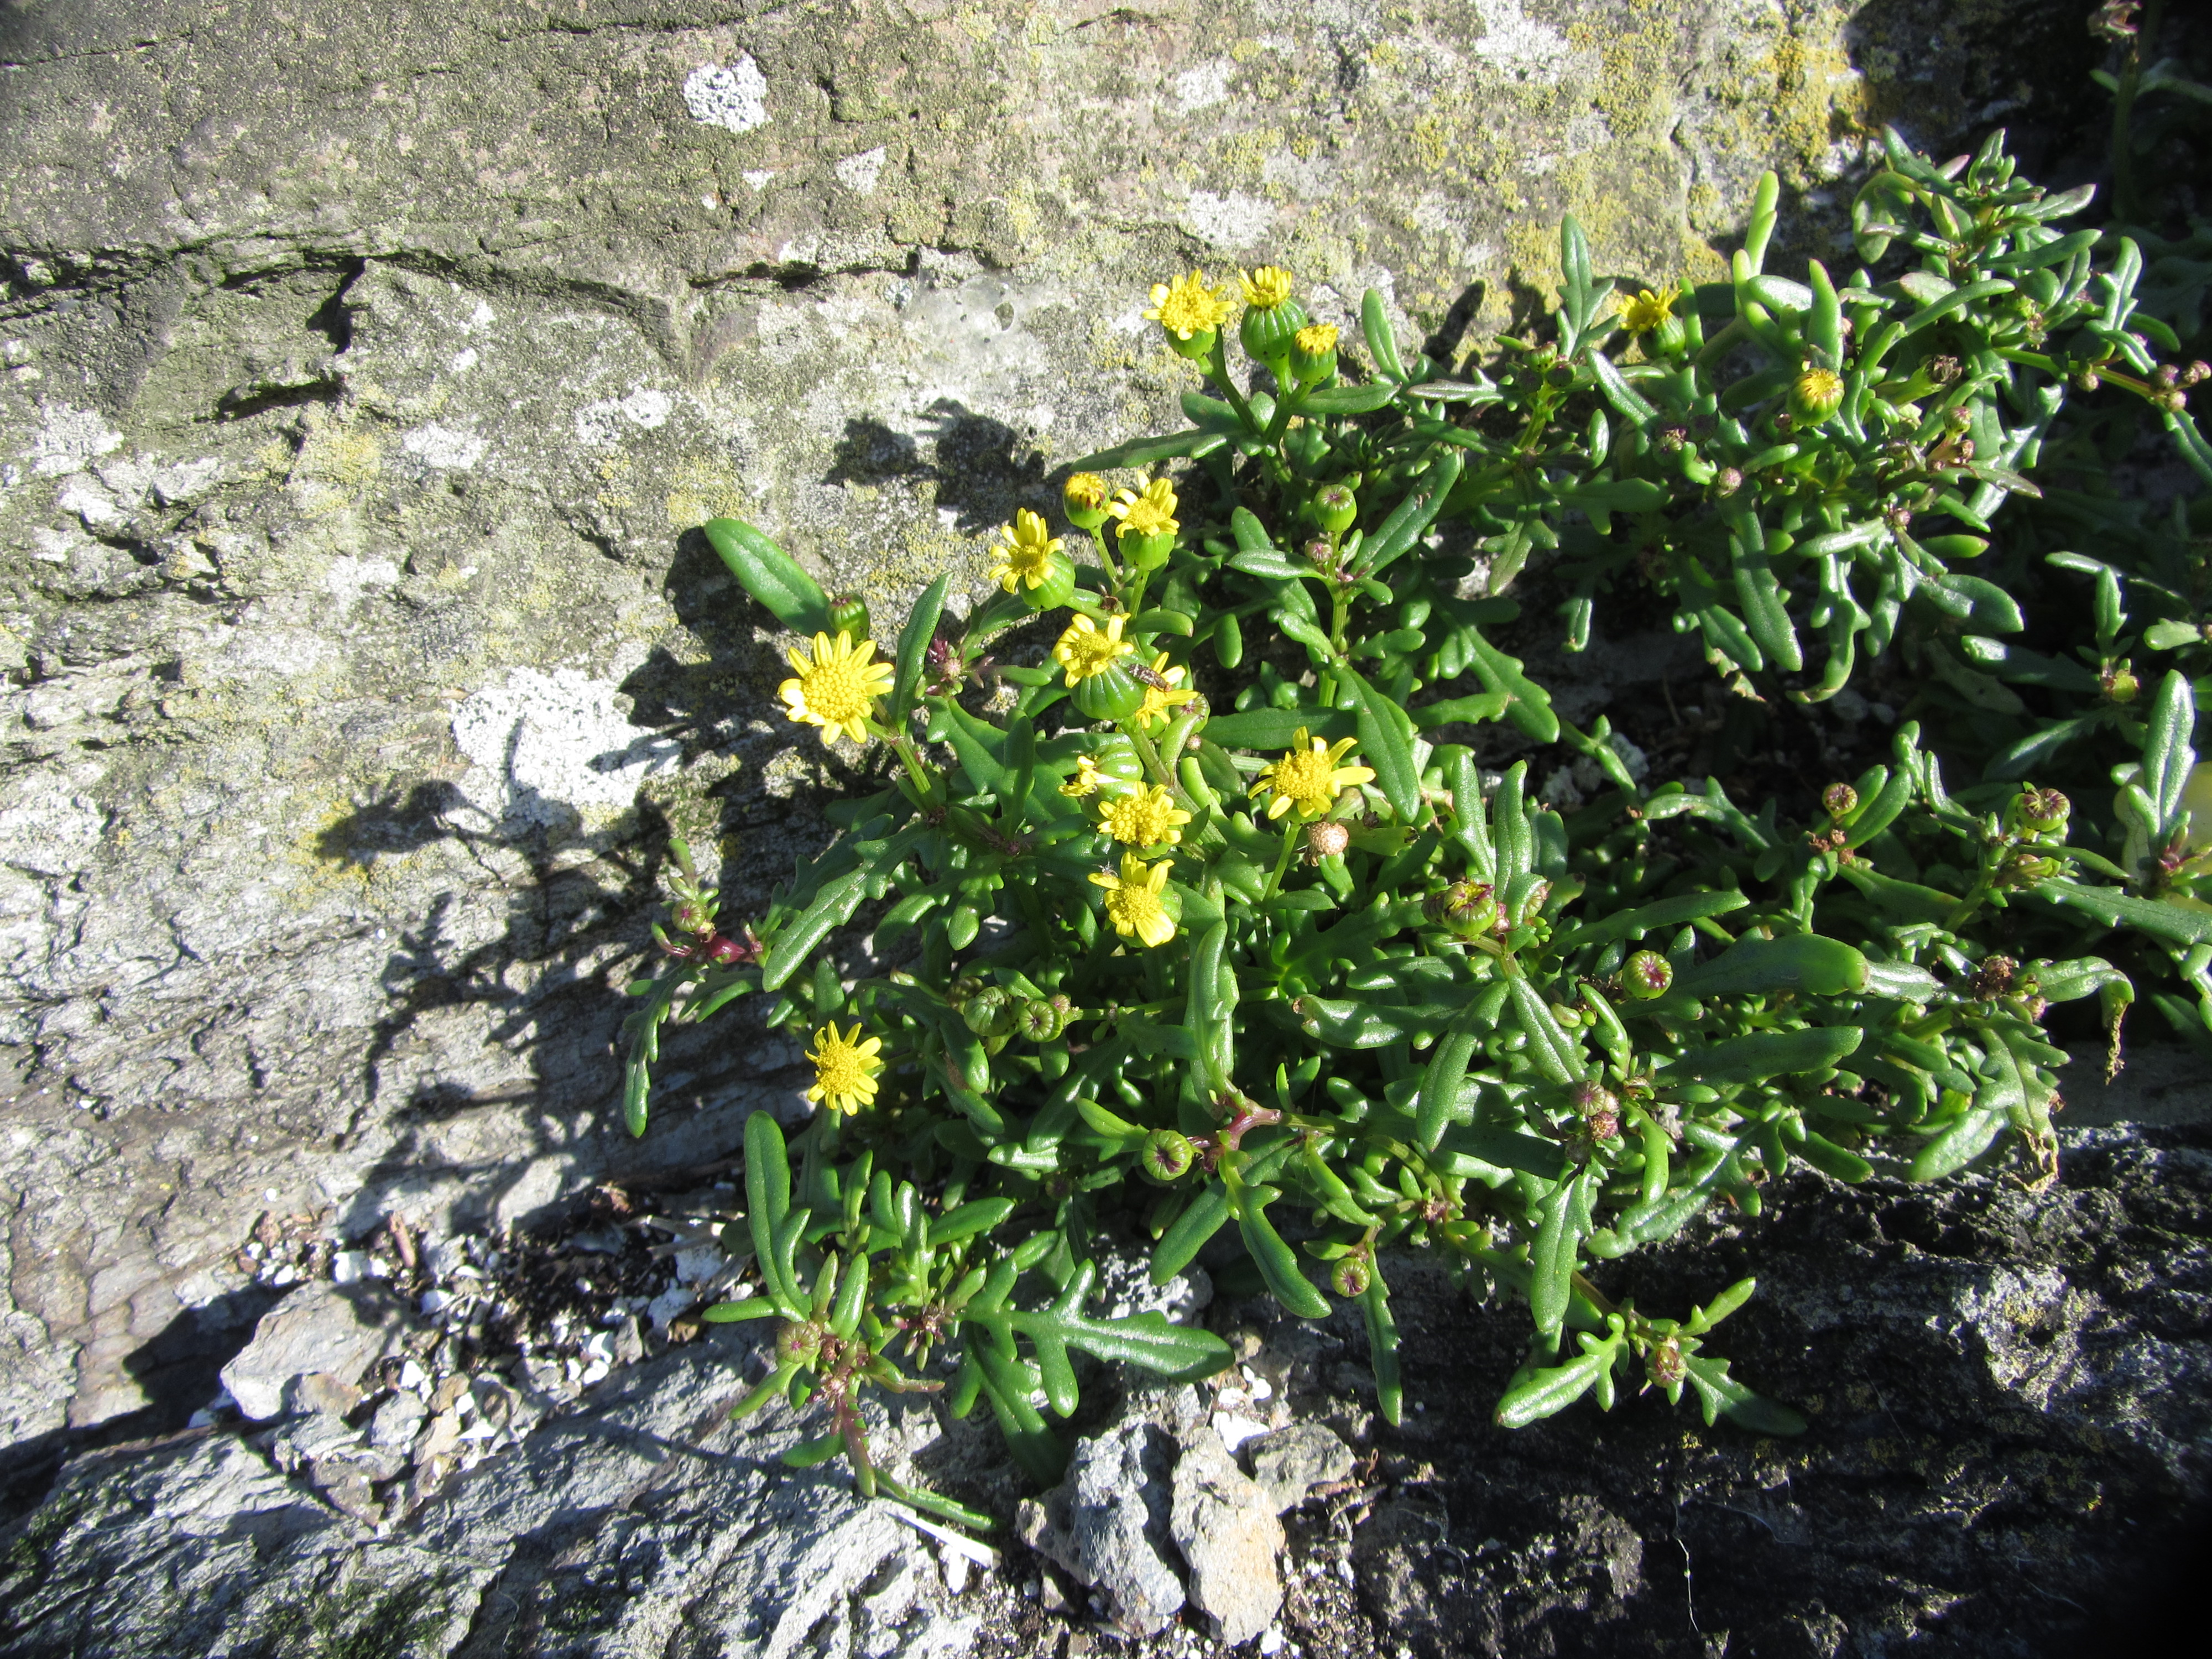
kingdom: Plantae
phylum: Tracheophyta
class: Magnoliopsida
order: Asterales
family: Asteraceae
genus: Senecio
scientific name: Senecio lautus
